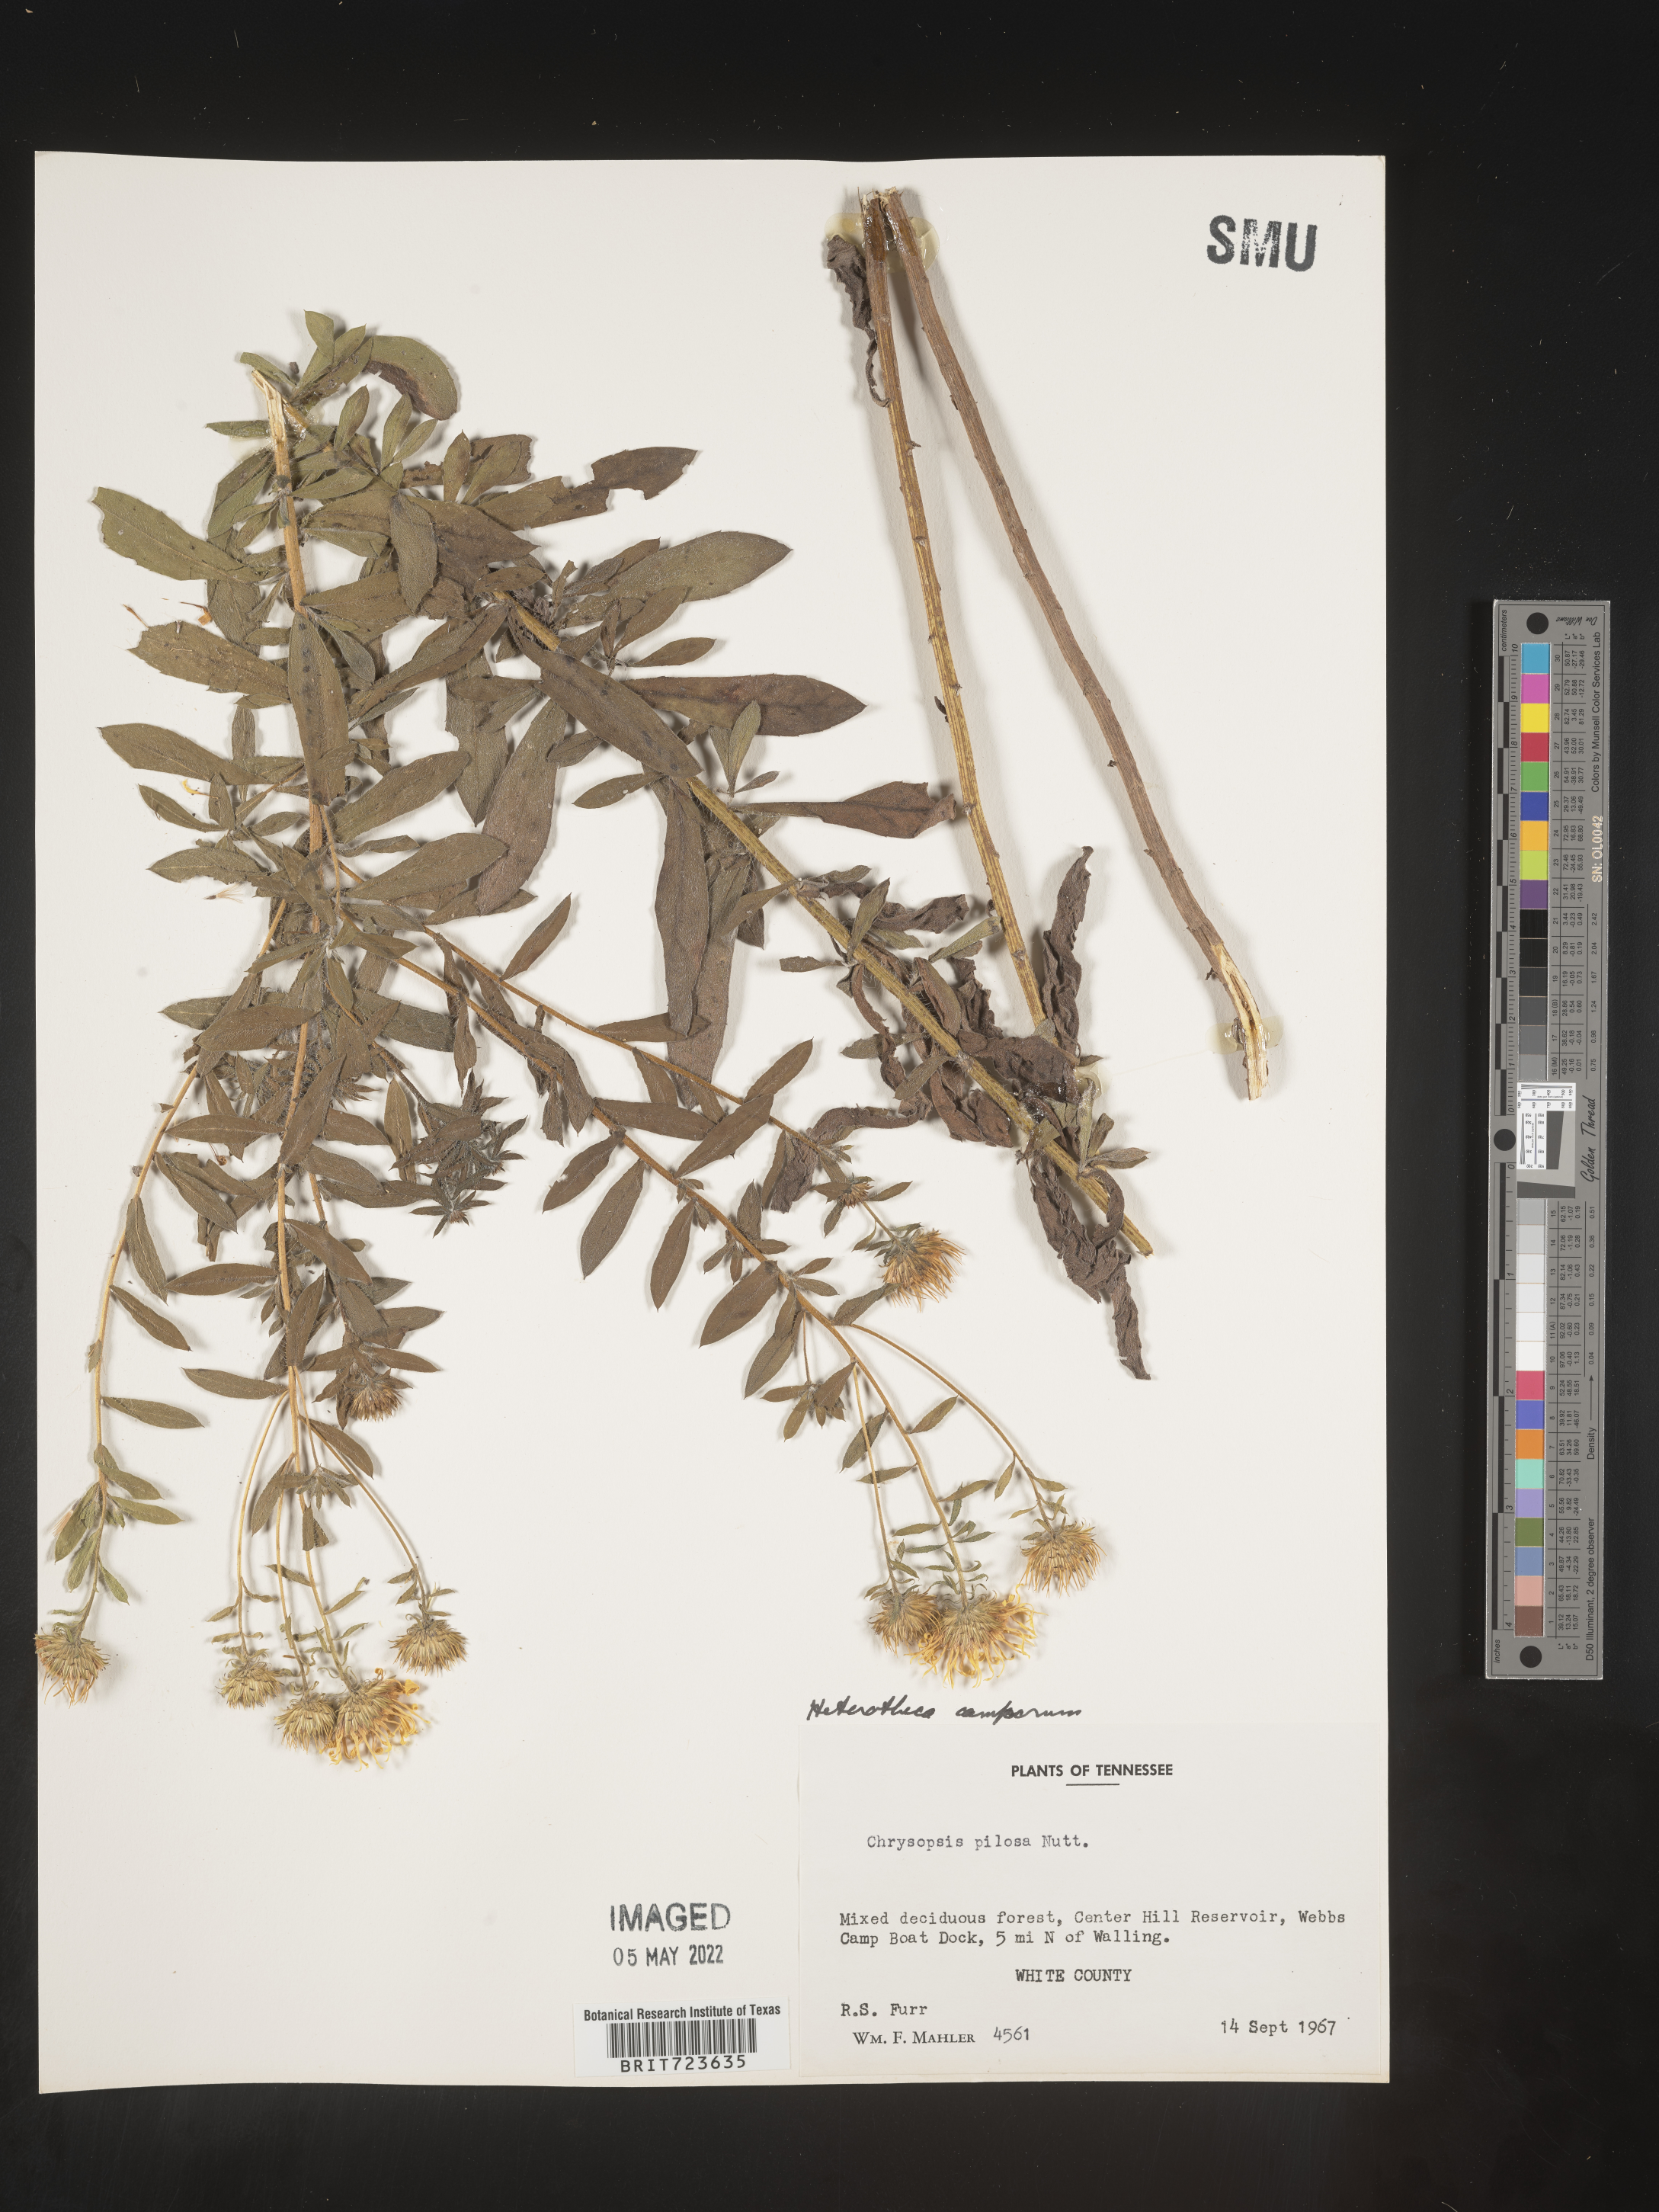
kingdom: Plantae
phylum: Tracheophyta
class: Magnoliopsida
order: Asterales
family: Asteraceae
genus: Heterotheca
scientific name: Heterotheca camporum
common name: Prairie golden-aster
